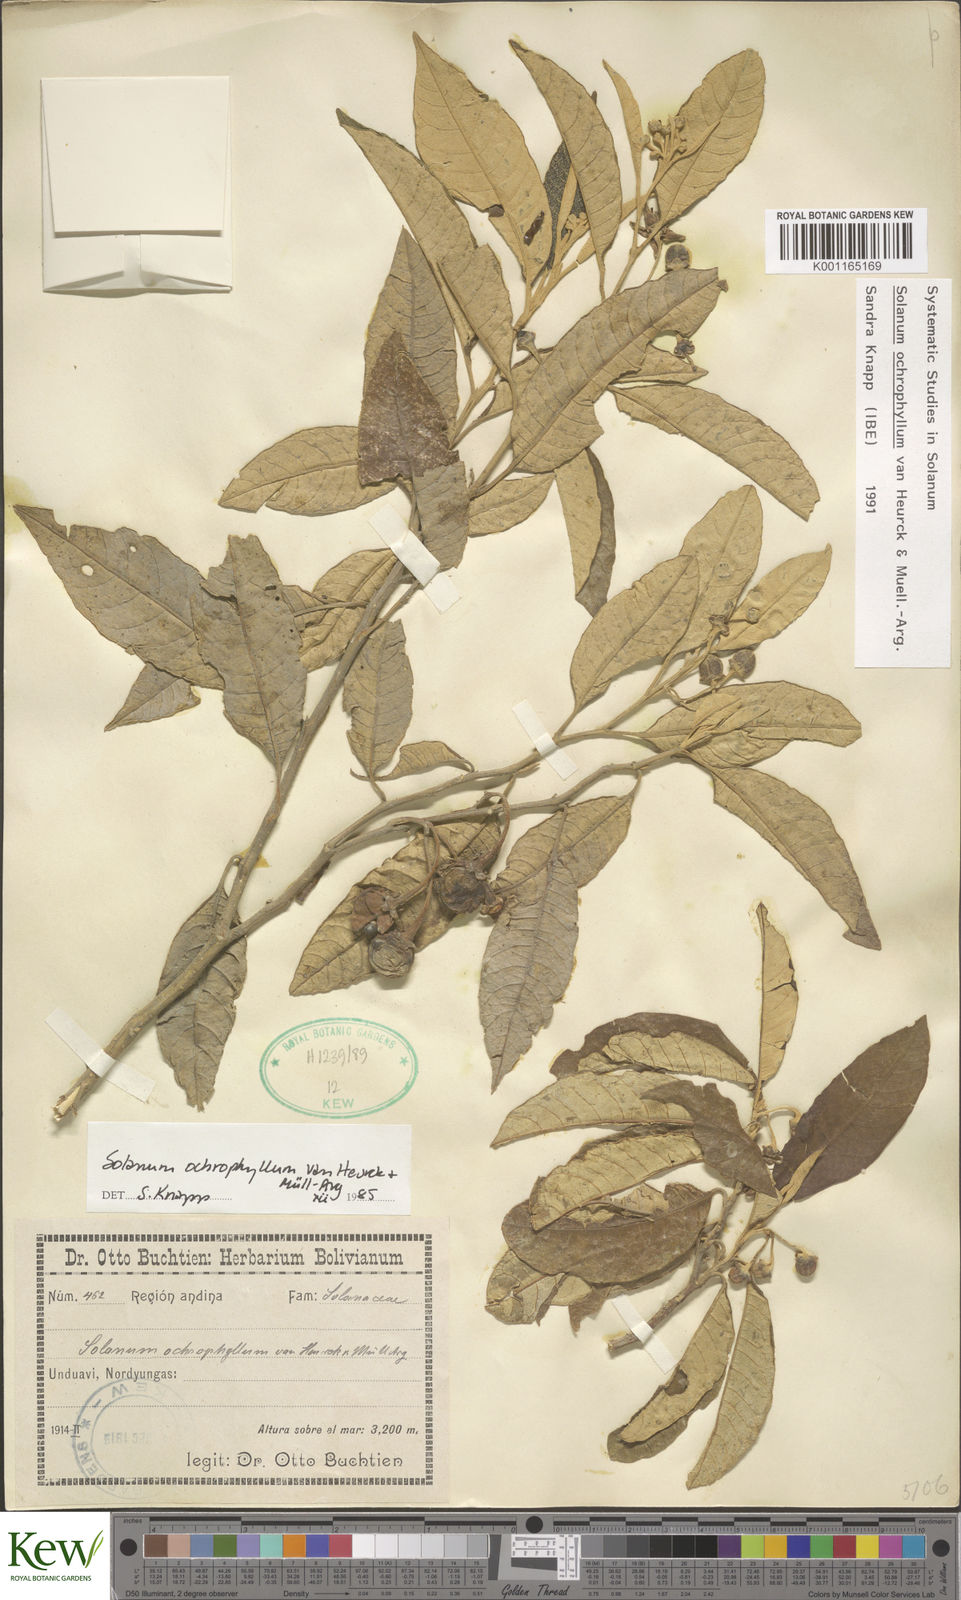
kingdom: Plantae
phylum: Tracheophyta
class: Magnoliopsida
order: Solanales
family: Solanaceae
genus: Solanum
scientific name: Solanum ochrophyllum
